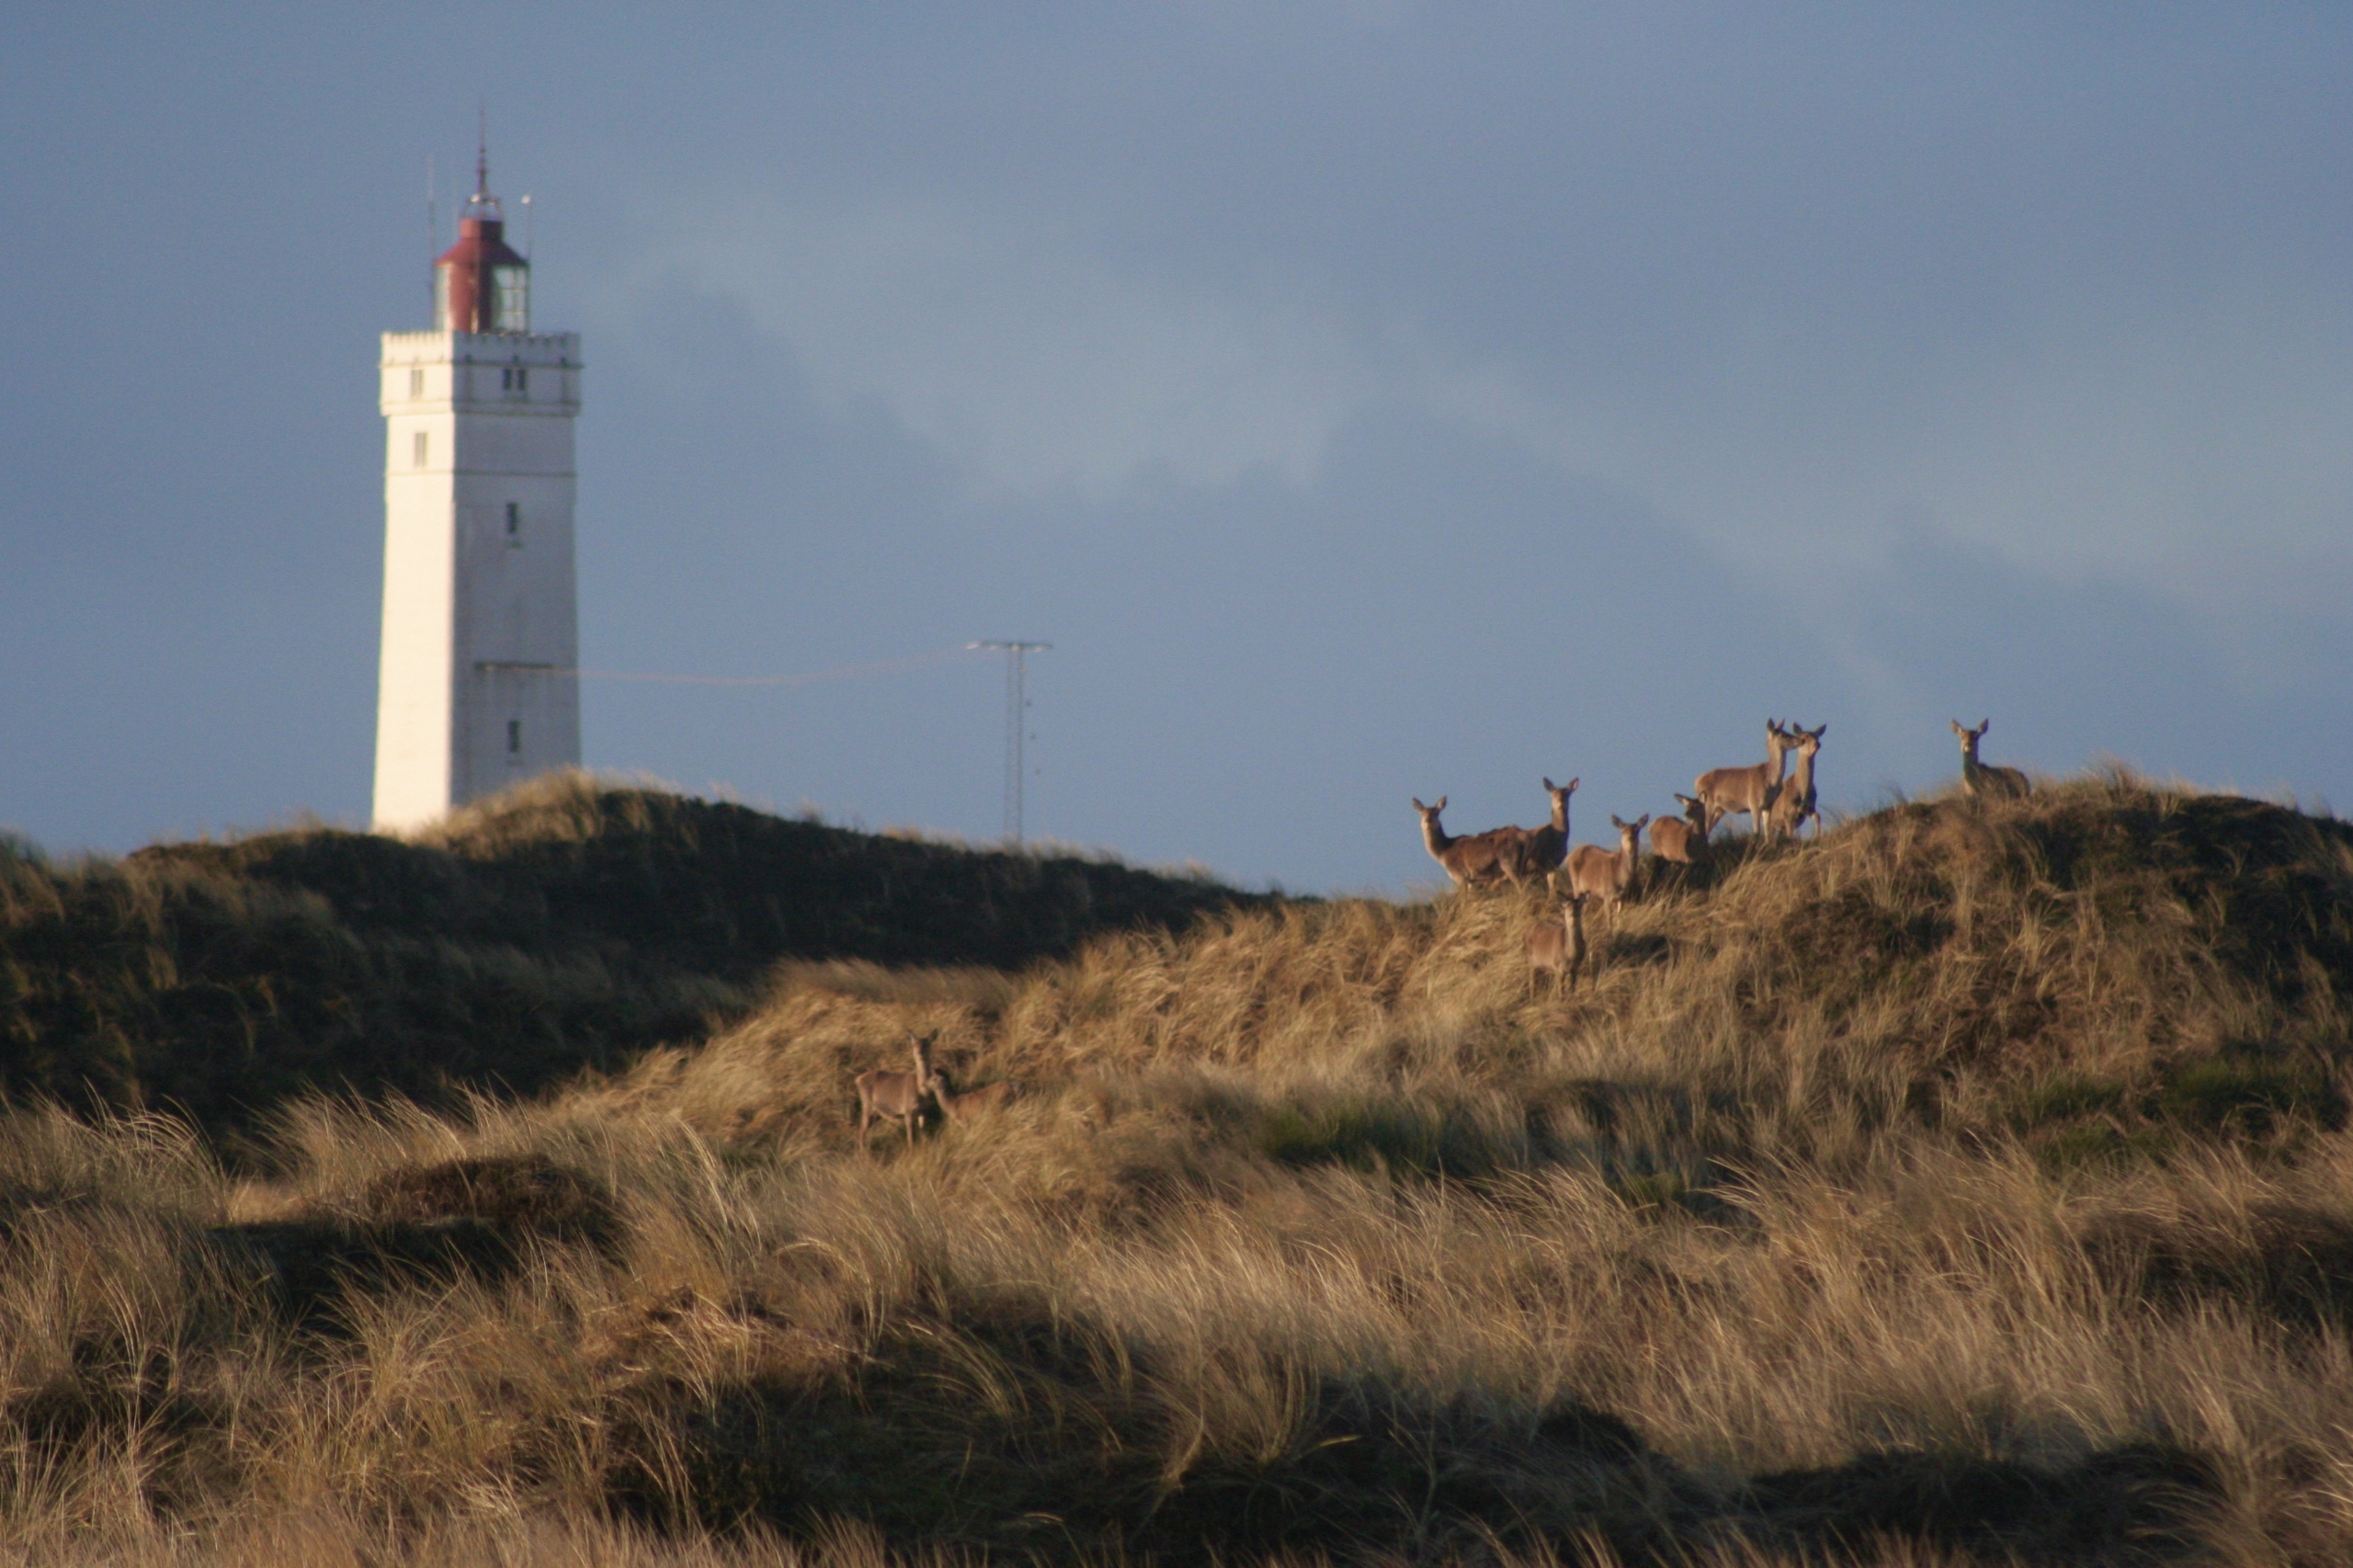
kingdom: Animalia
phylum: Chordata
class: Mammalia
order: Artiodactyla
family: Cervidae
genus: Cervus
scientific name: Cervus elaphus
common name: Krondyr
